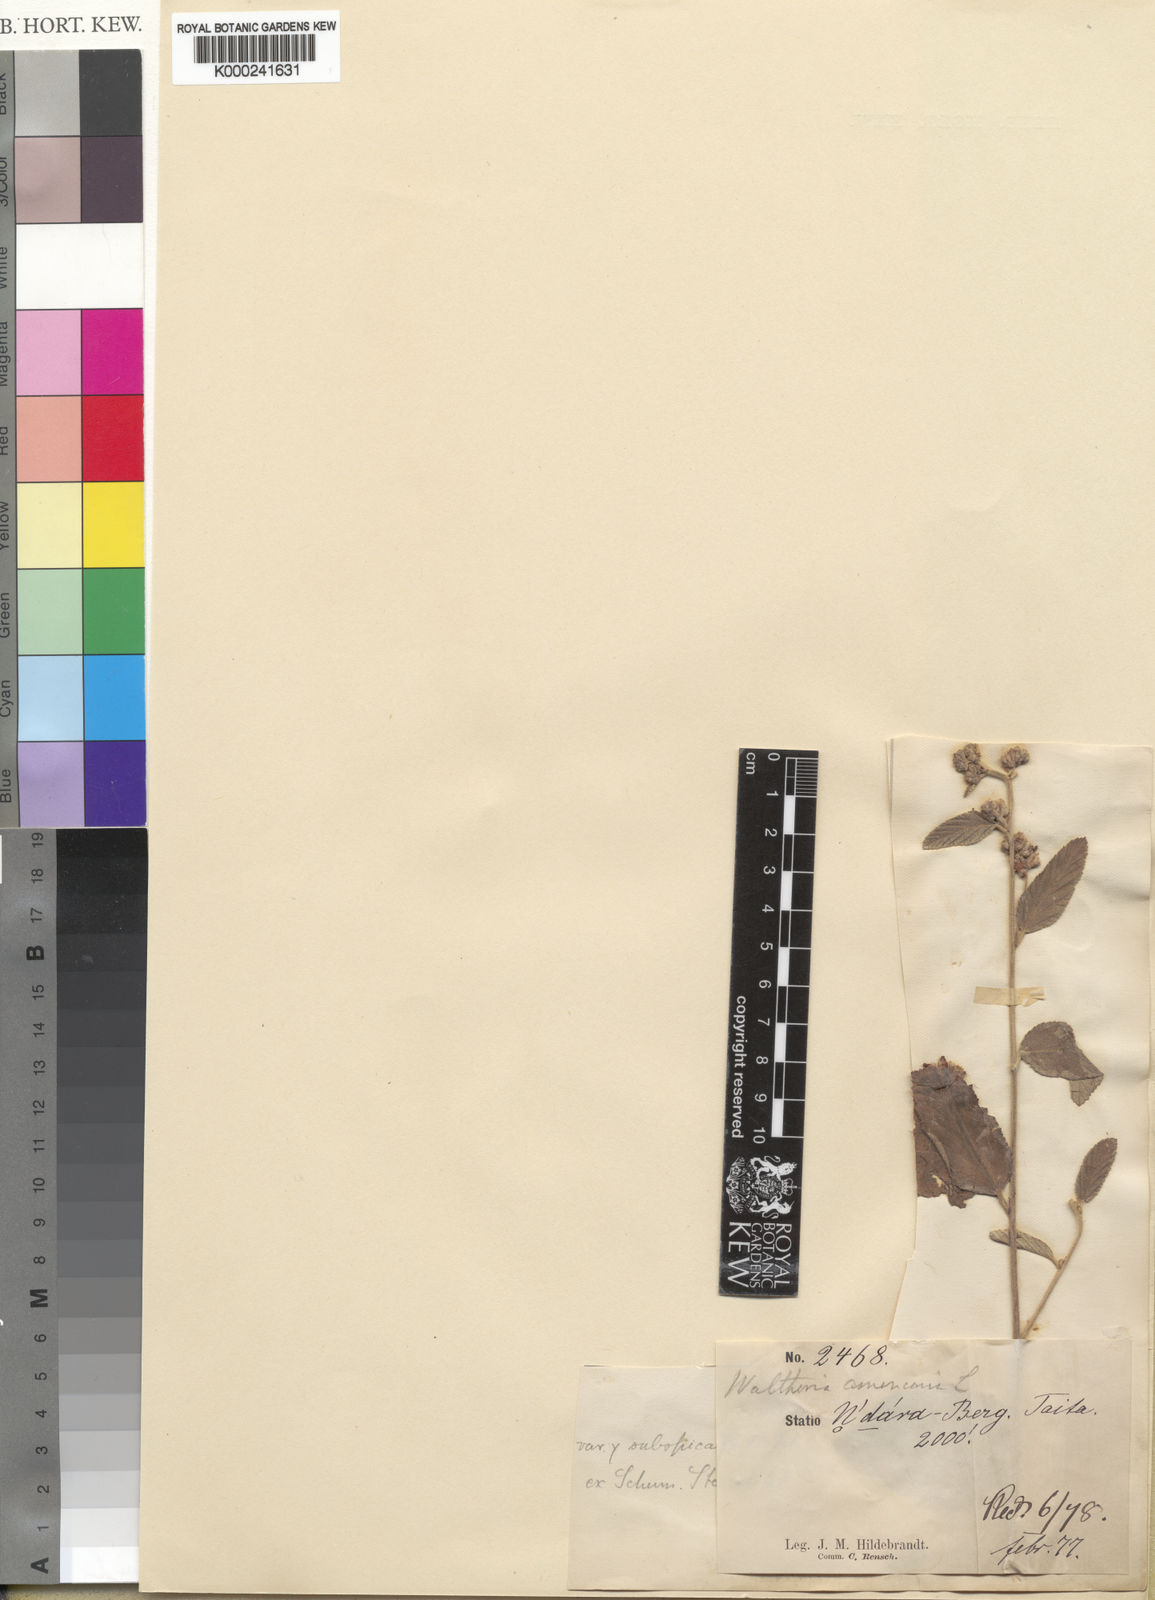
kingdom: Plantae
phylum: Tracheophyta
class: Magnoliopsida
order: Malvales
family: Malvaceae
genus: Waltheria
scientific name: Waltheria indica
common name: Leather-coat
